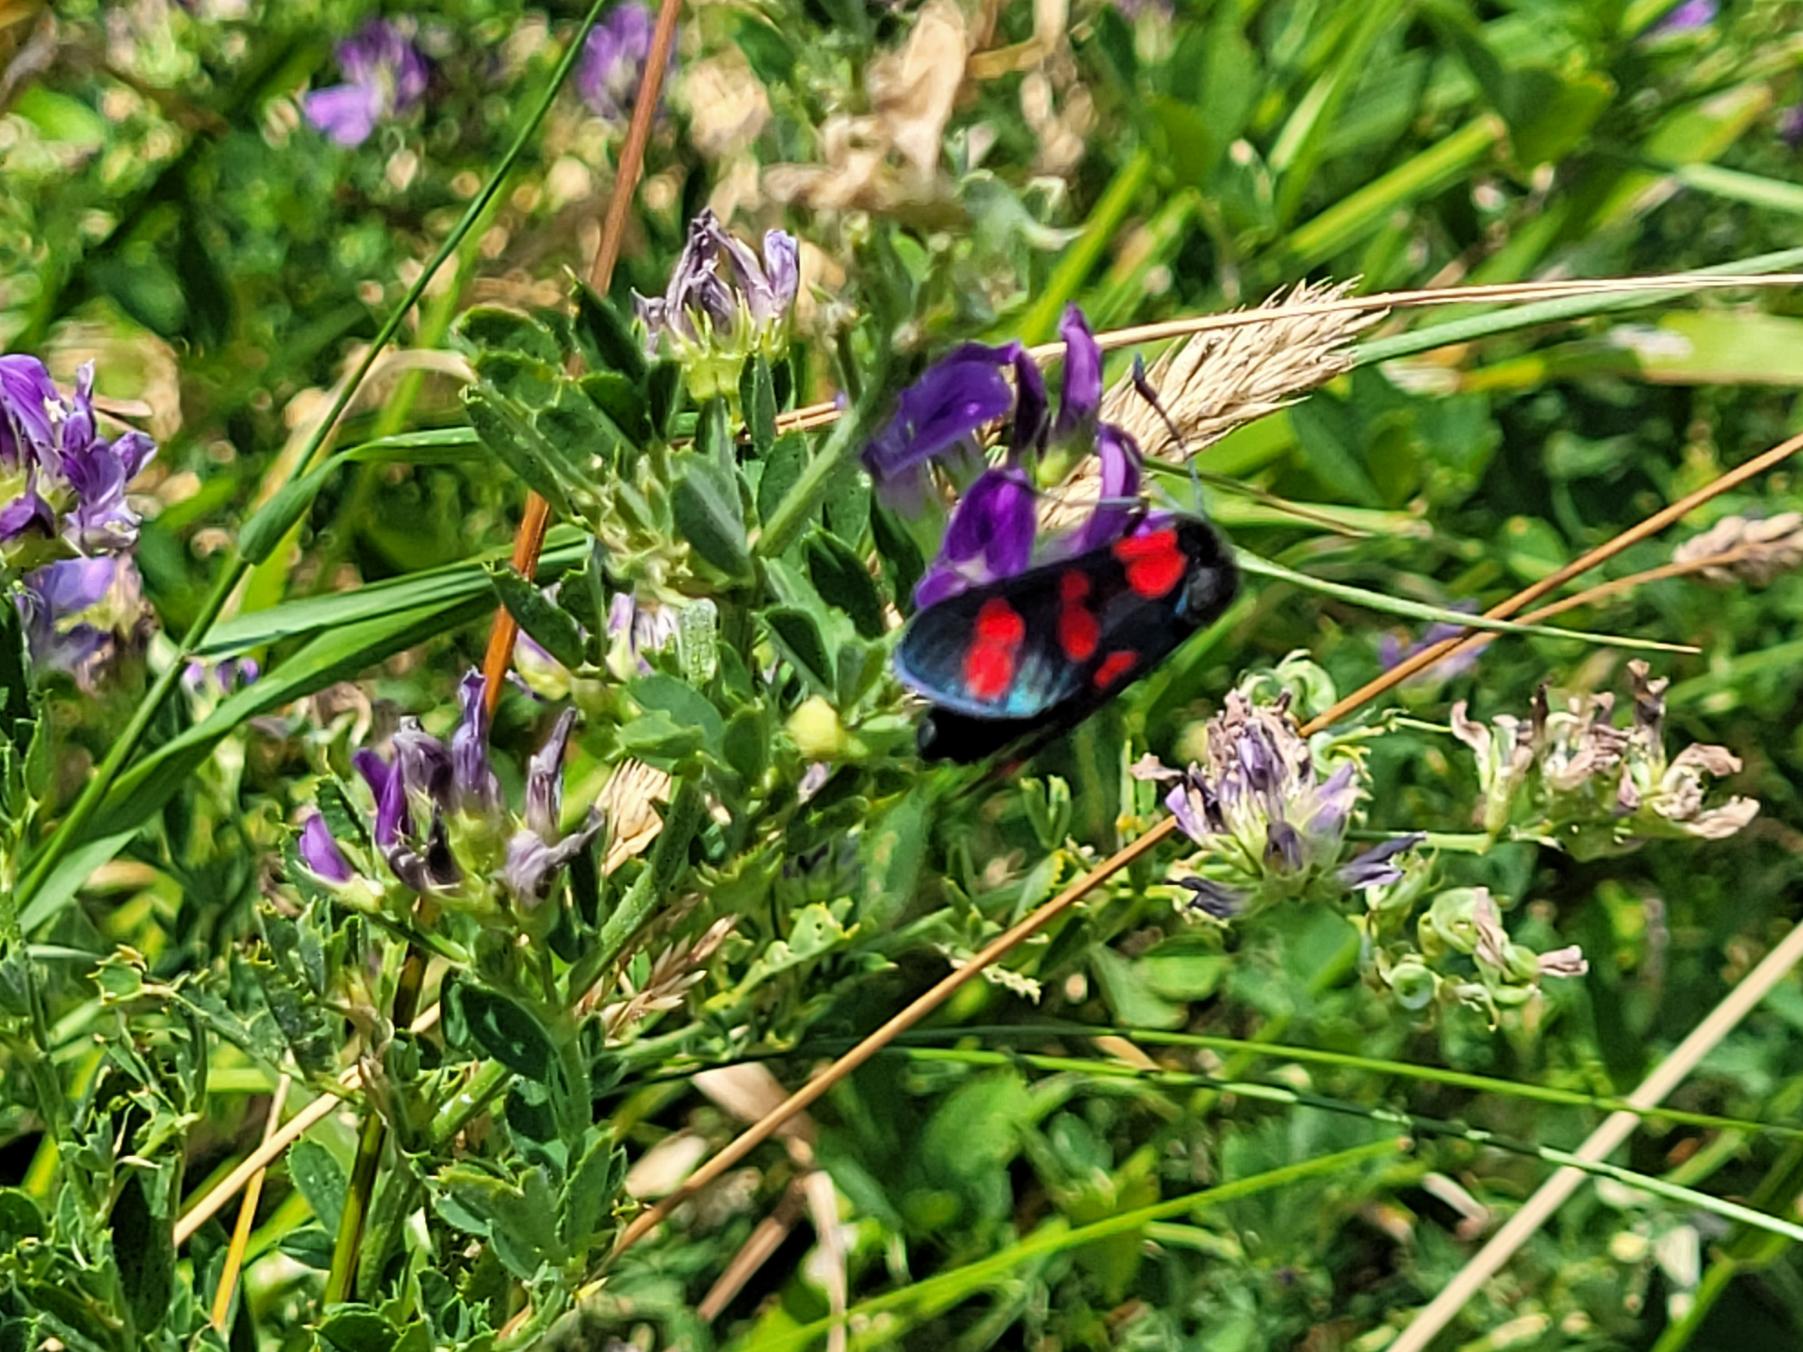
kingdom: Animalia
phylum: Arthropoda
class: Insecta
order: Lepidoptera
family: Zygaenidae
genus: Zygaena
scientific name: Zygaena filipendulae
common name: Seksplettet køllesværmer
